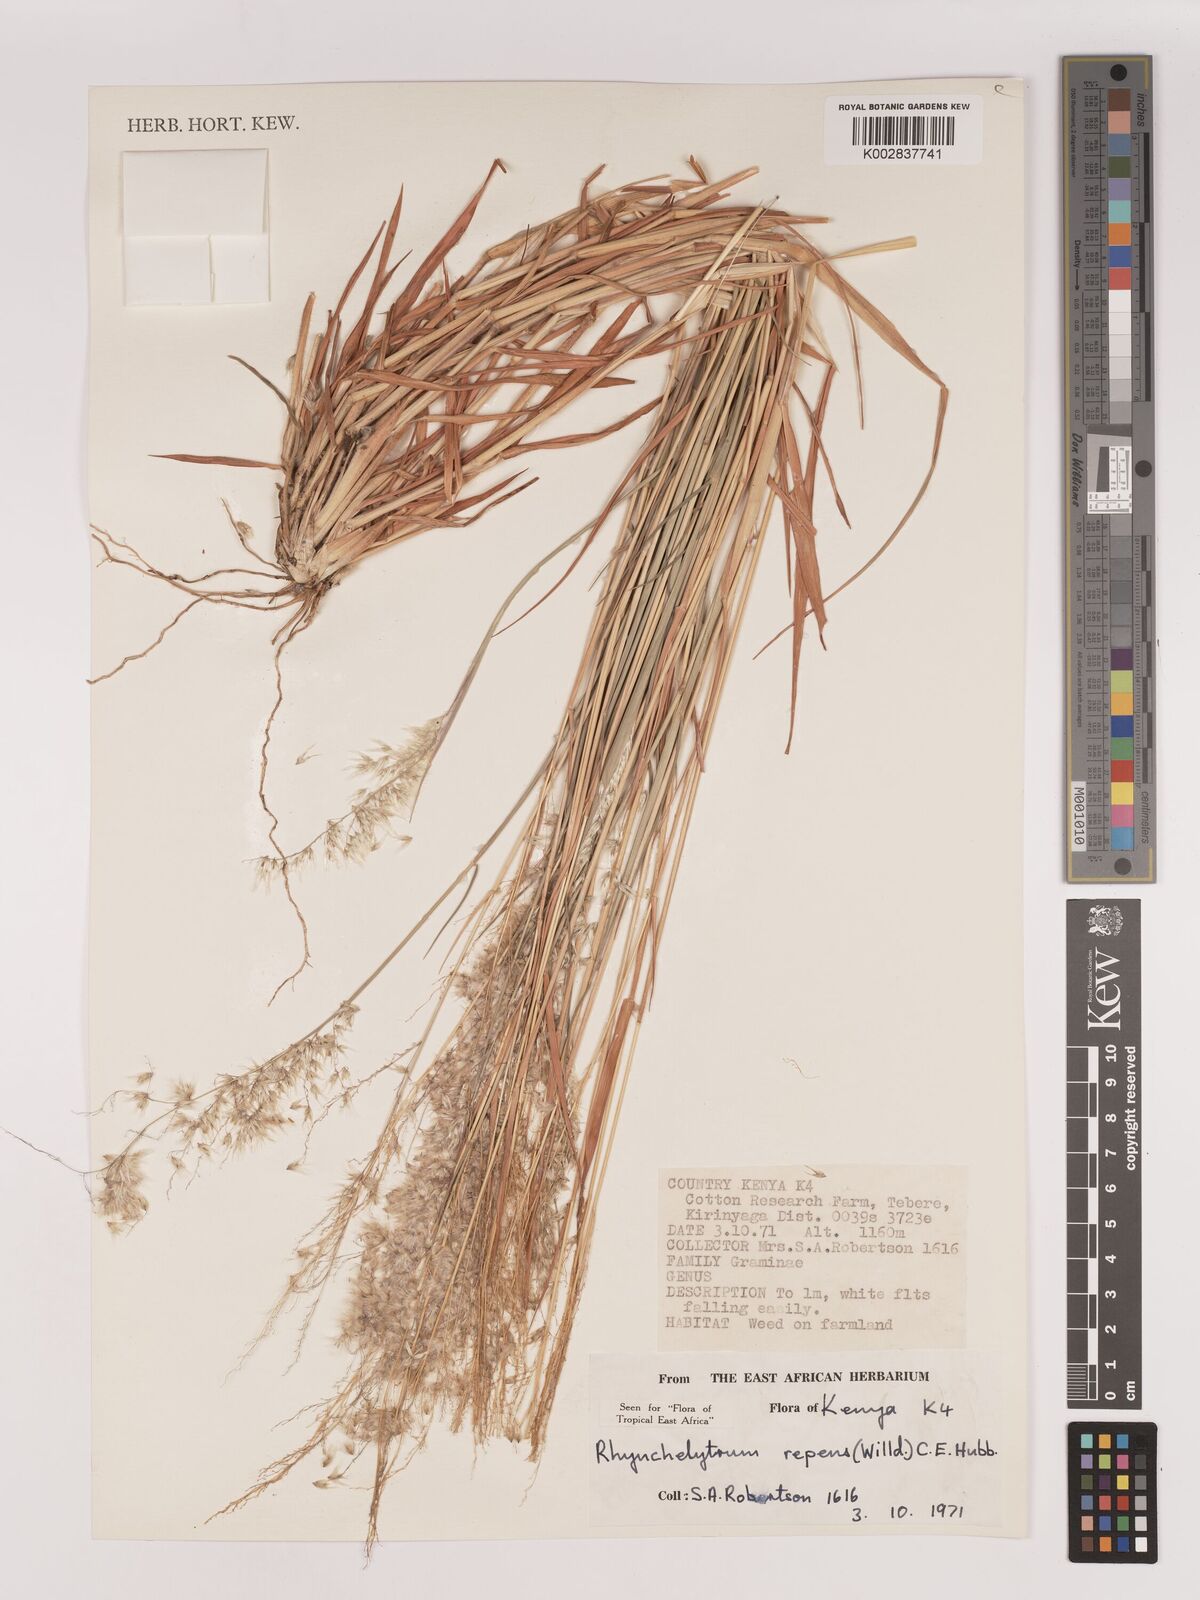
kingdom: Plantae
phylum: Tracheophyta
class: Liliopsida
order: Poales
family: Poaceae
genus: Melinis
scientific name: Melinis repens
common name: Rose natal grass
